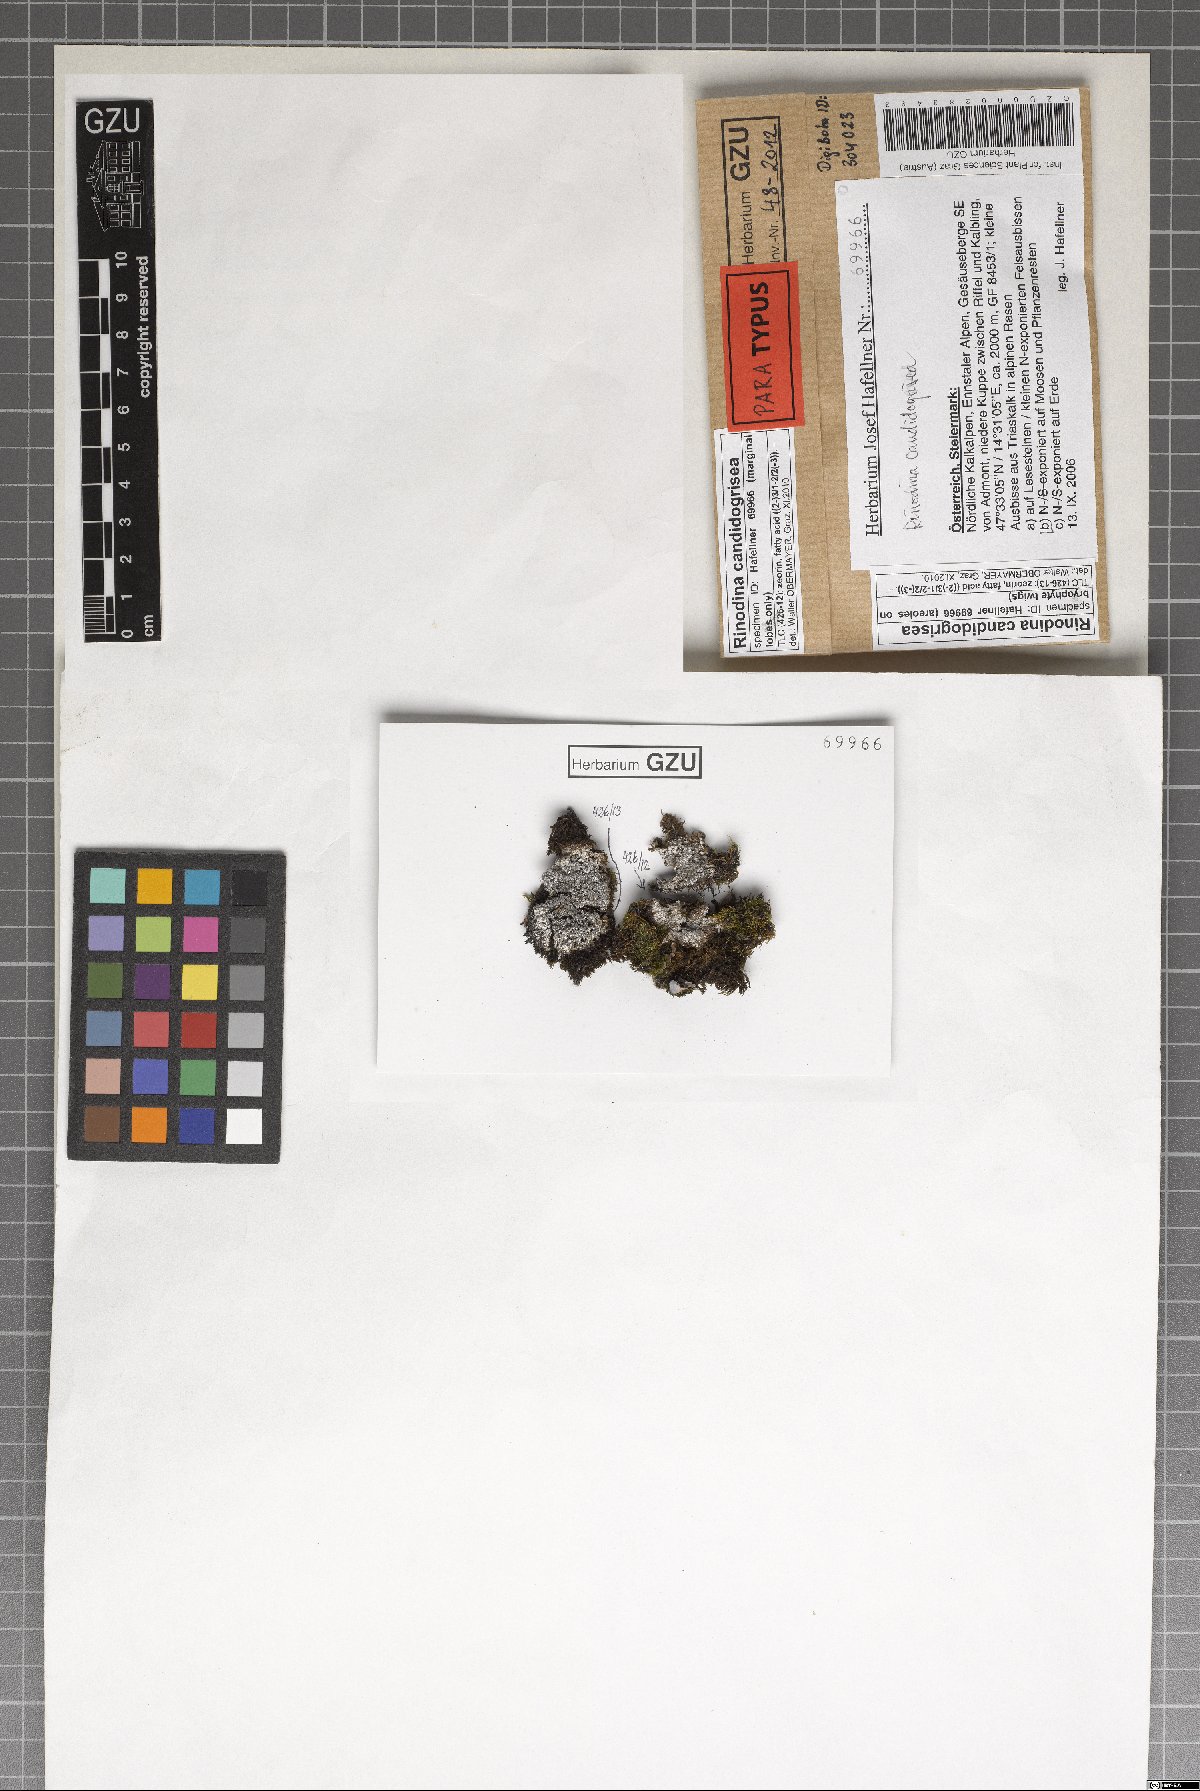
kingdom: Fungi
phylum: Ascomycota
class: Lecanoromycetes
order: Caliciales
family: Physciaceae
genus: Kudratovia
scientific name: Kudratovia candidogrisea
